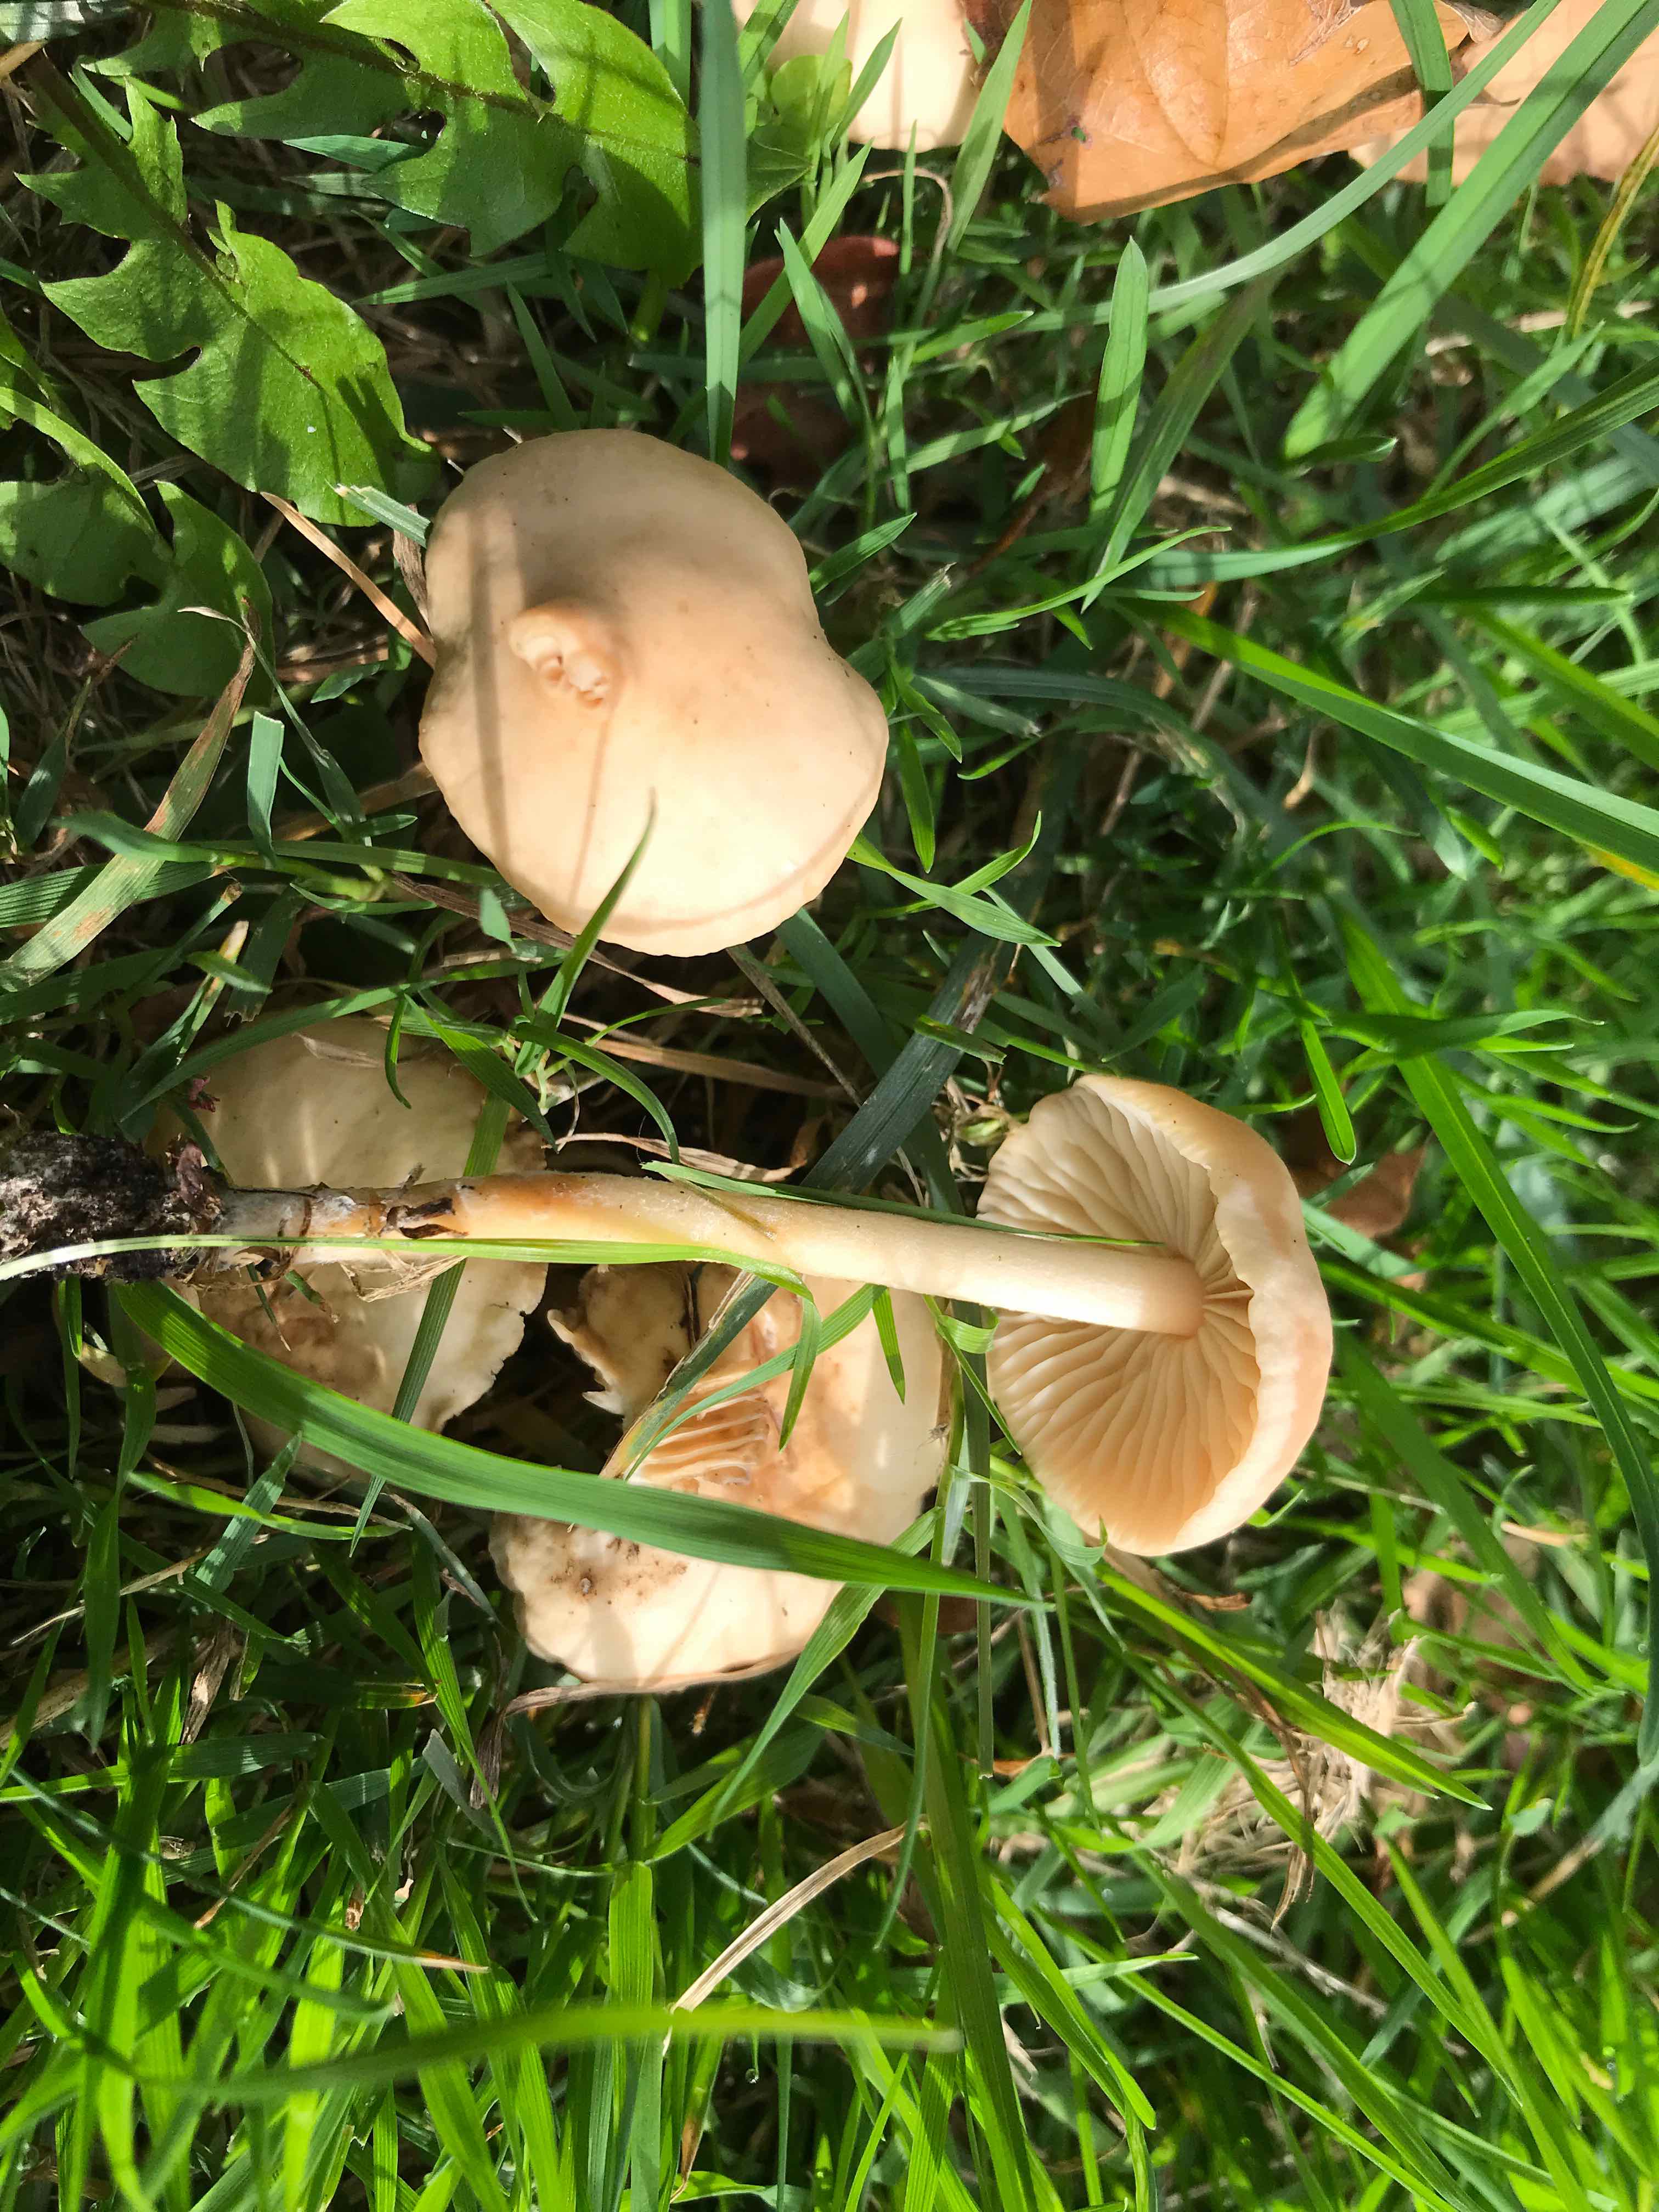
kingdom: Fungi
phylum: Basidiomycota
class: Agaricomycetes
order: Agaricales
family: Marasmiaceae
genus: Marasmius
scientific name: Marasmius oreades
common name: elledans-bruskhat
